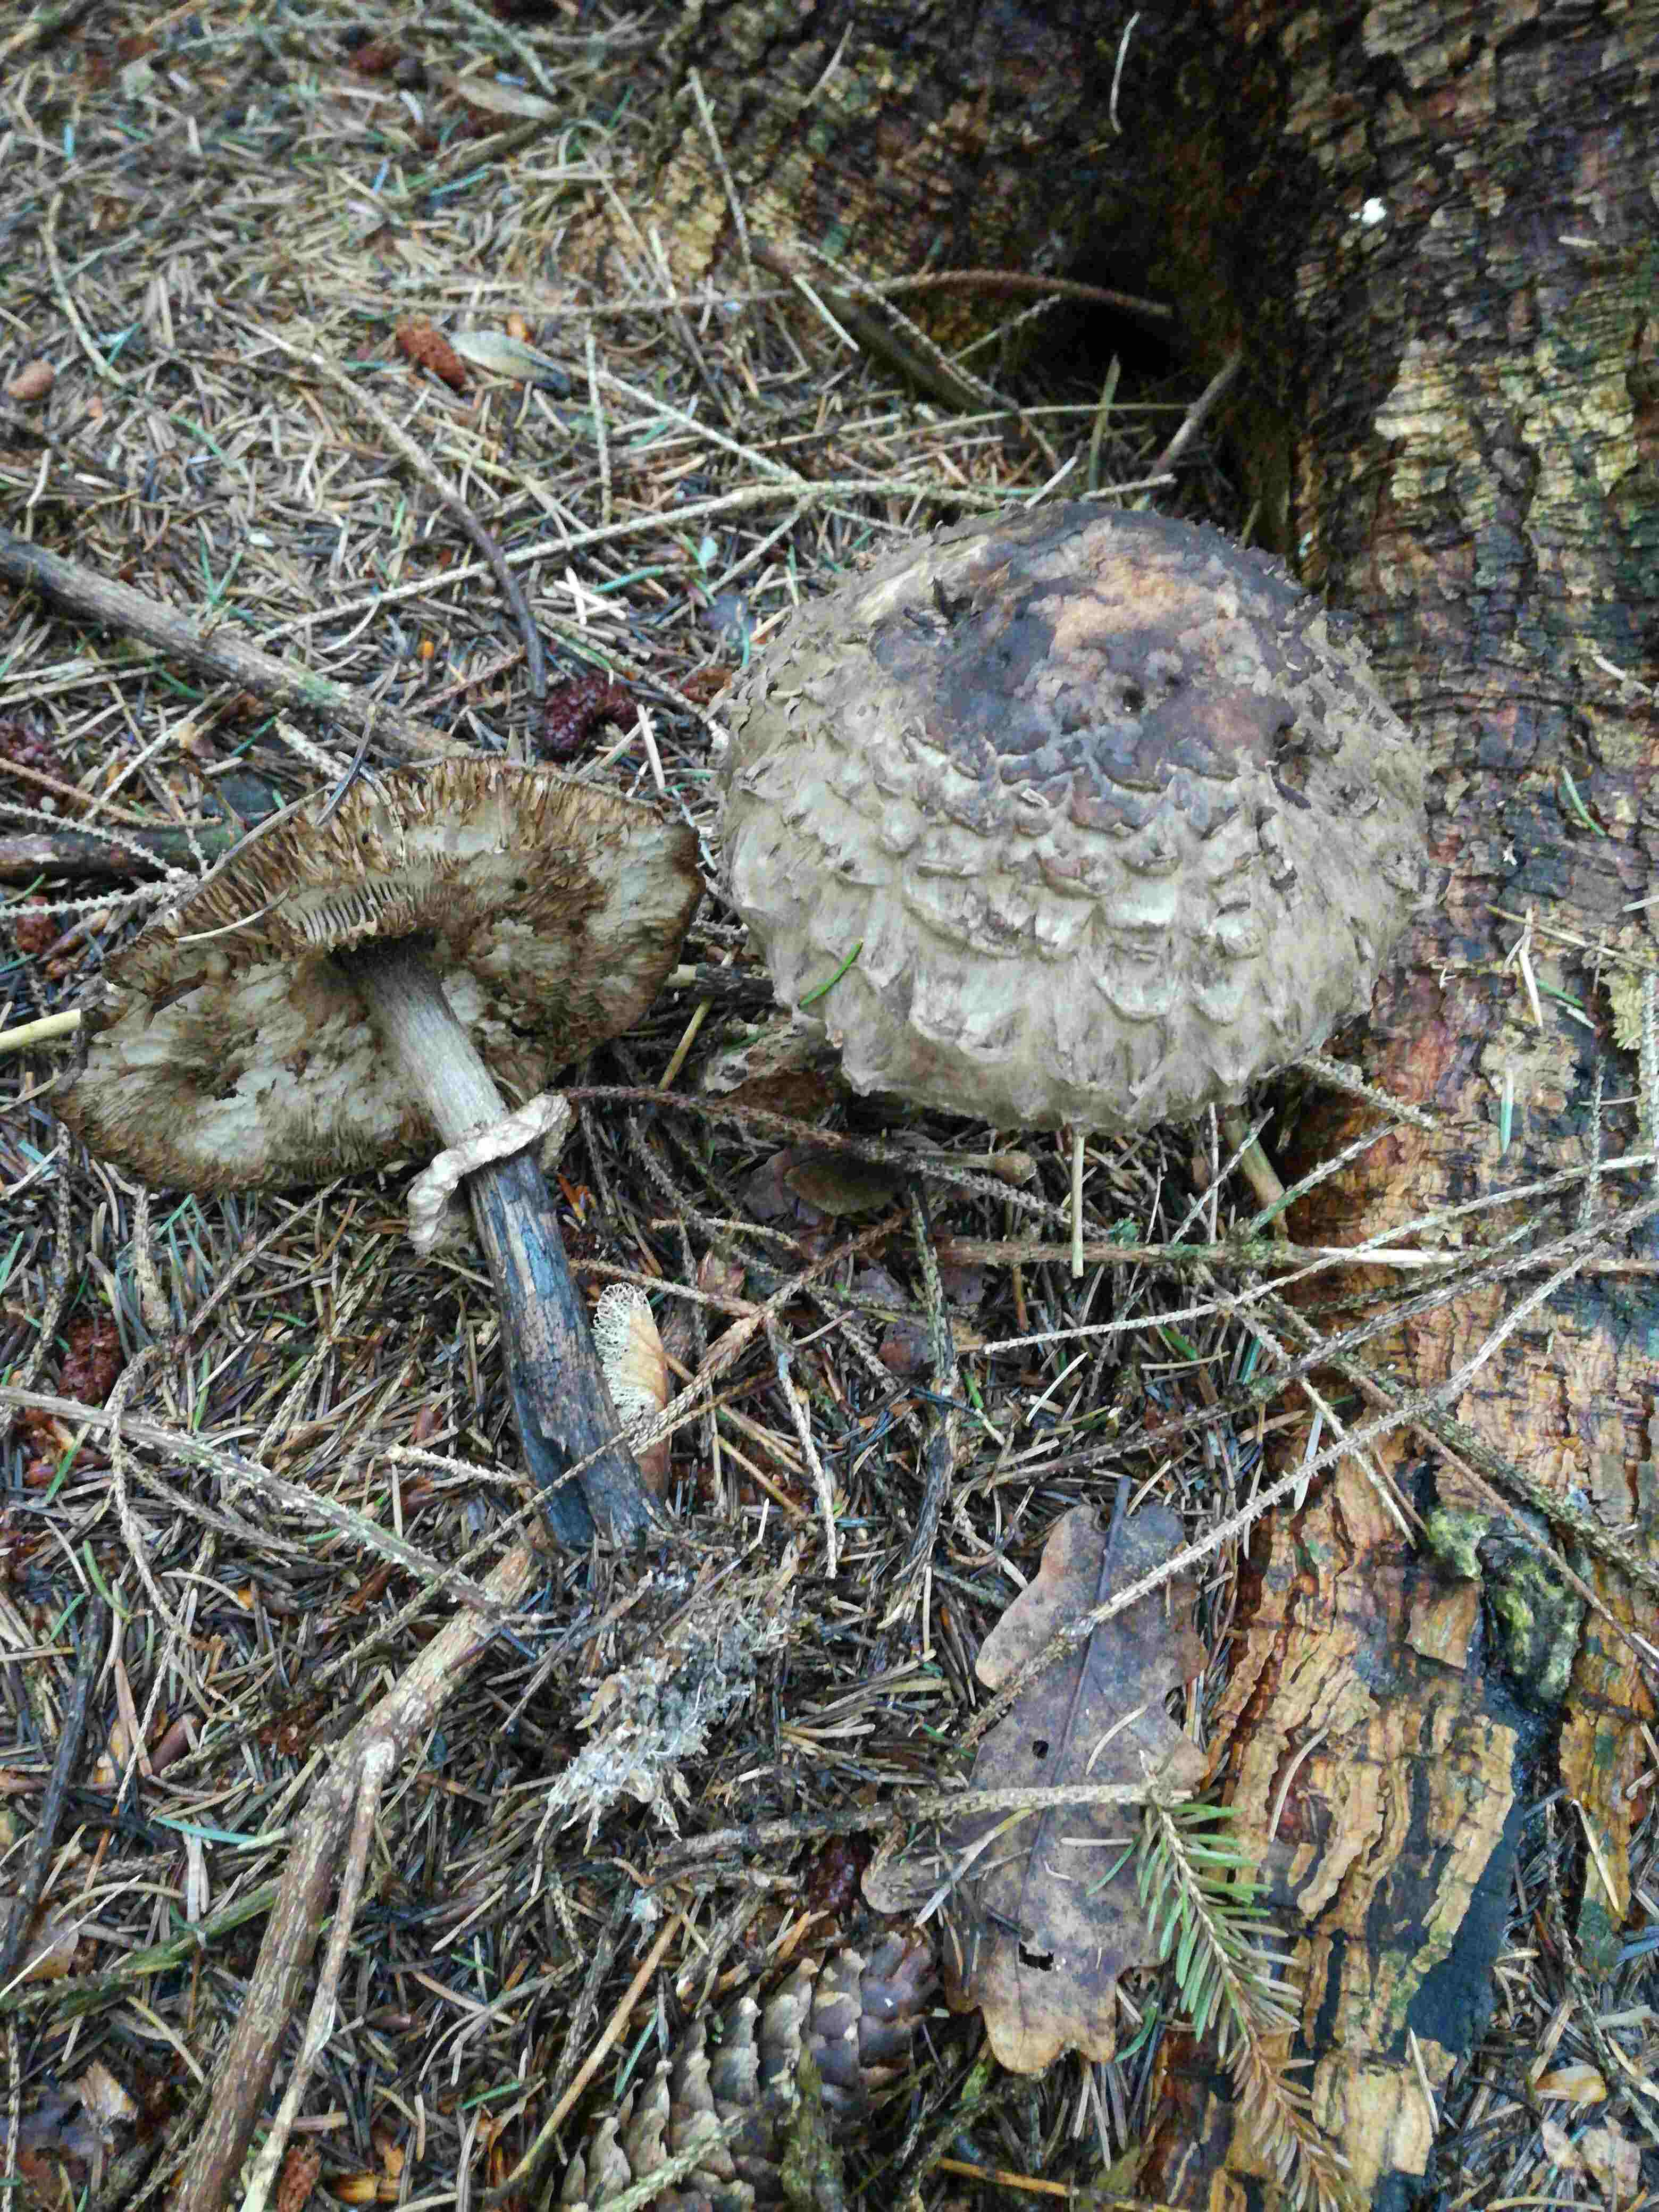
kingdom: Fungi
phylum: Basidiomycota
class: Agaricomycetes
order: Agaricales
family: Agaricaceae
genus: Chlorophyllum
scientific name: Chlorophyllum
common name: rabarberhat
